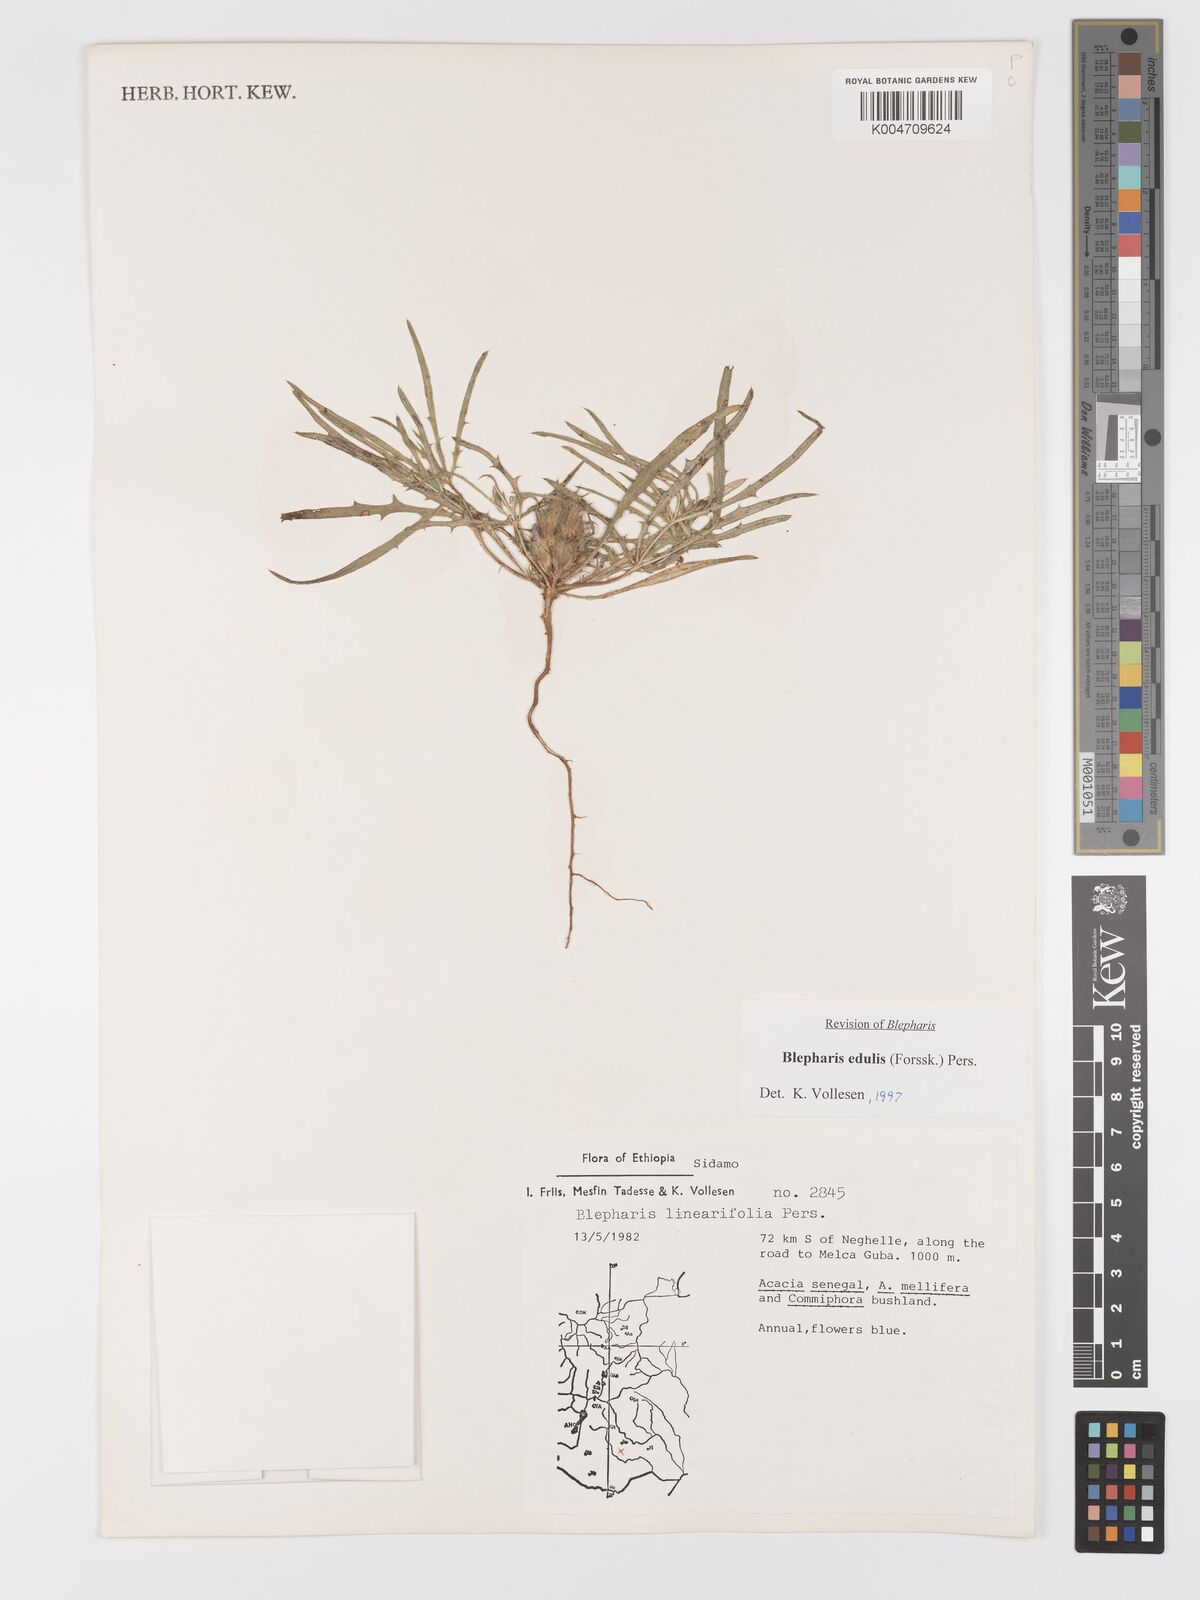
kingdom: Plantae
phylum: Tracheophyta
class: Magnoliopsida
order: Lamiales
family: Acanthaceae
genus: Blepharis
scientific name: Blepharis edulis
